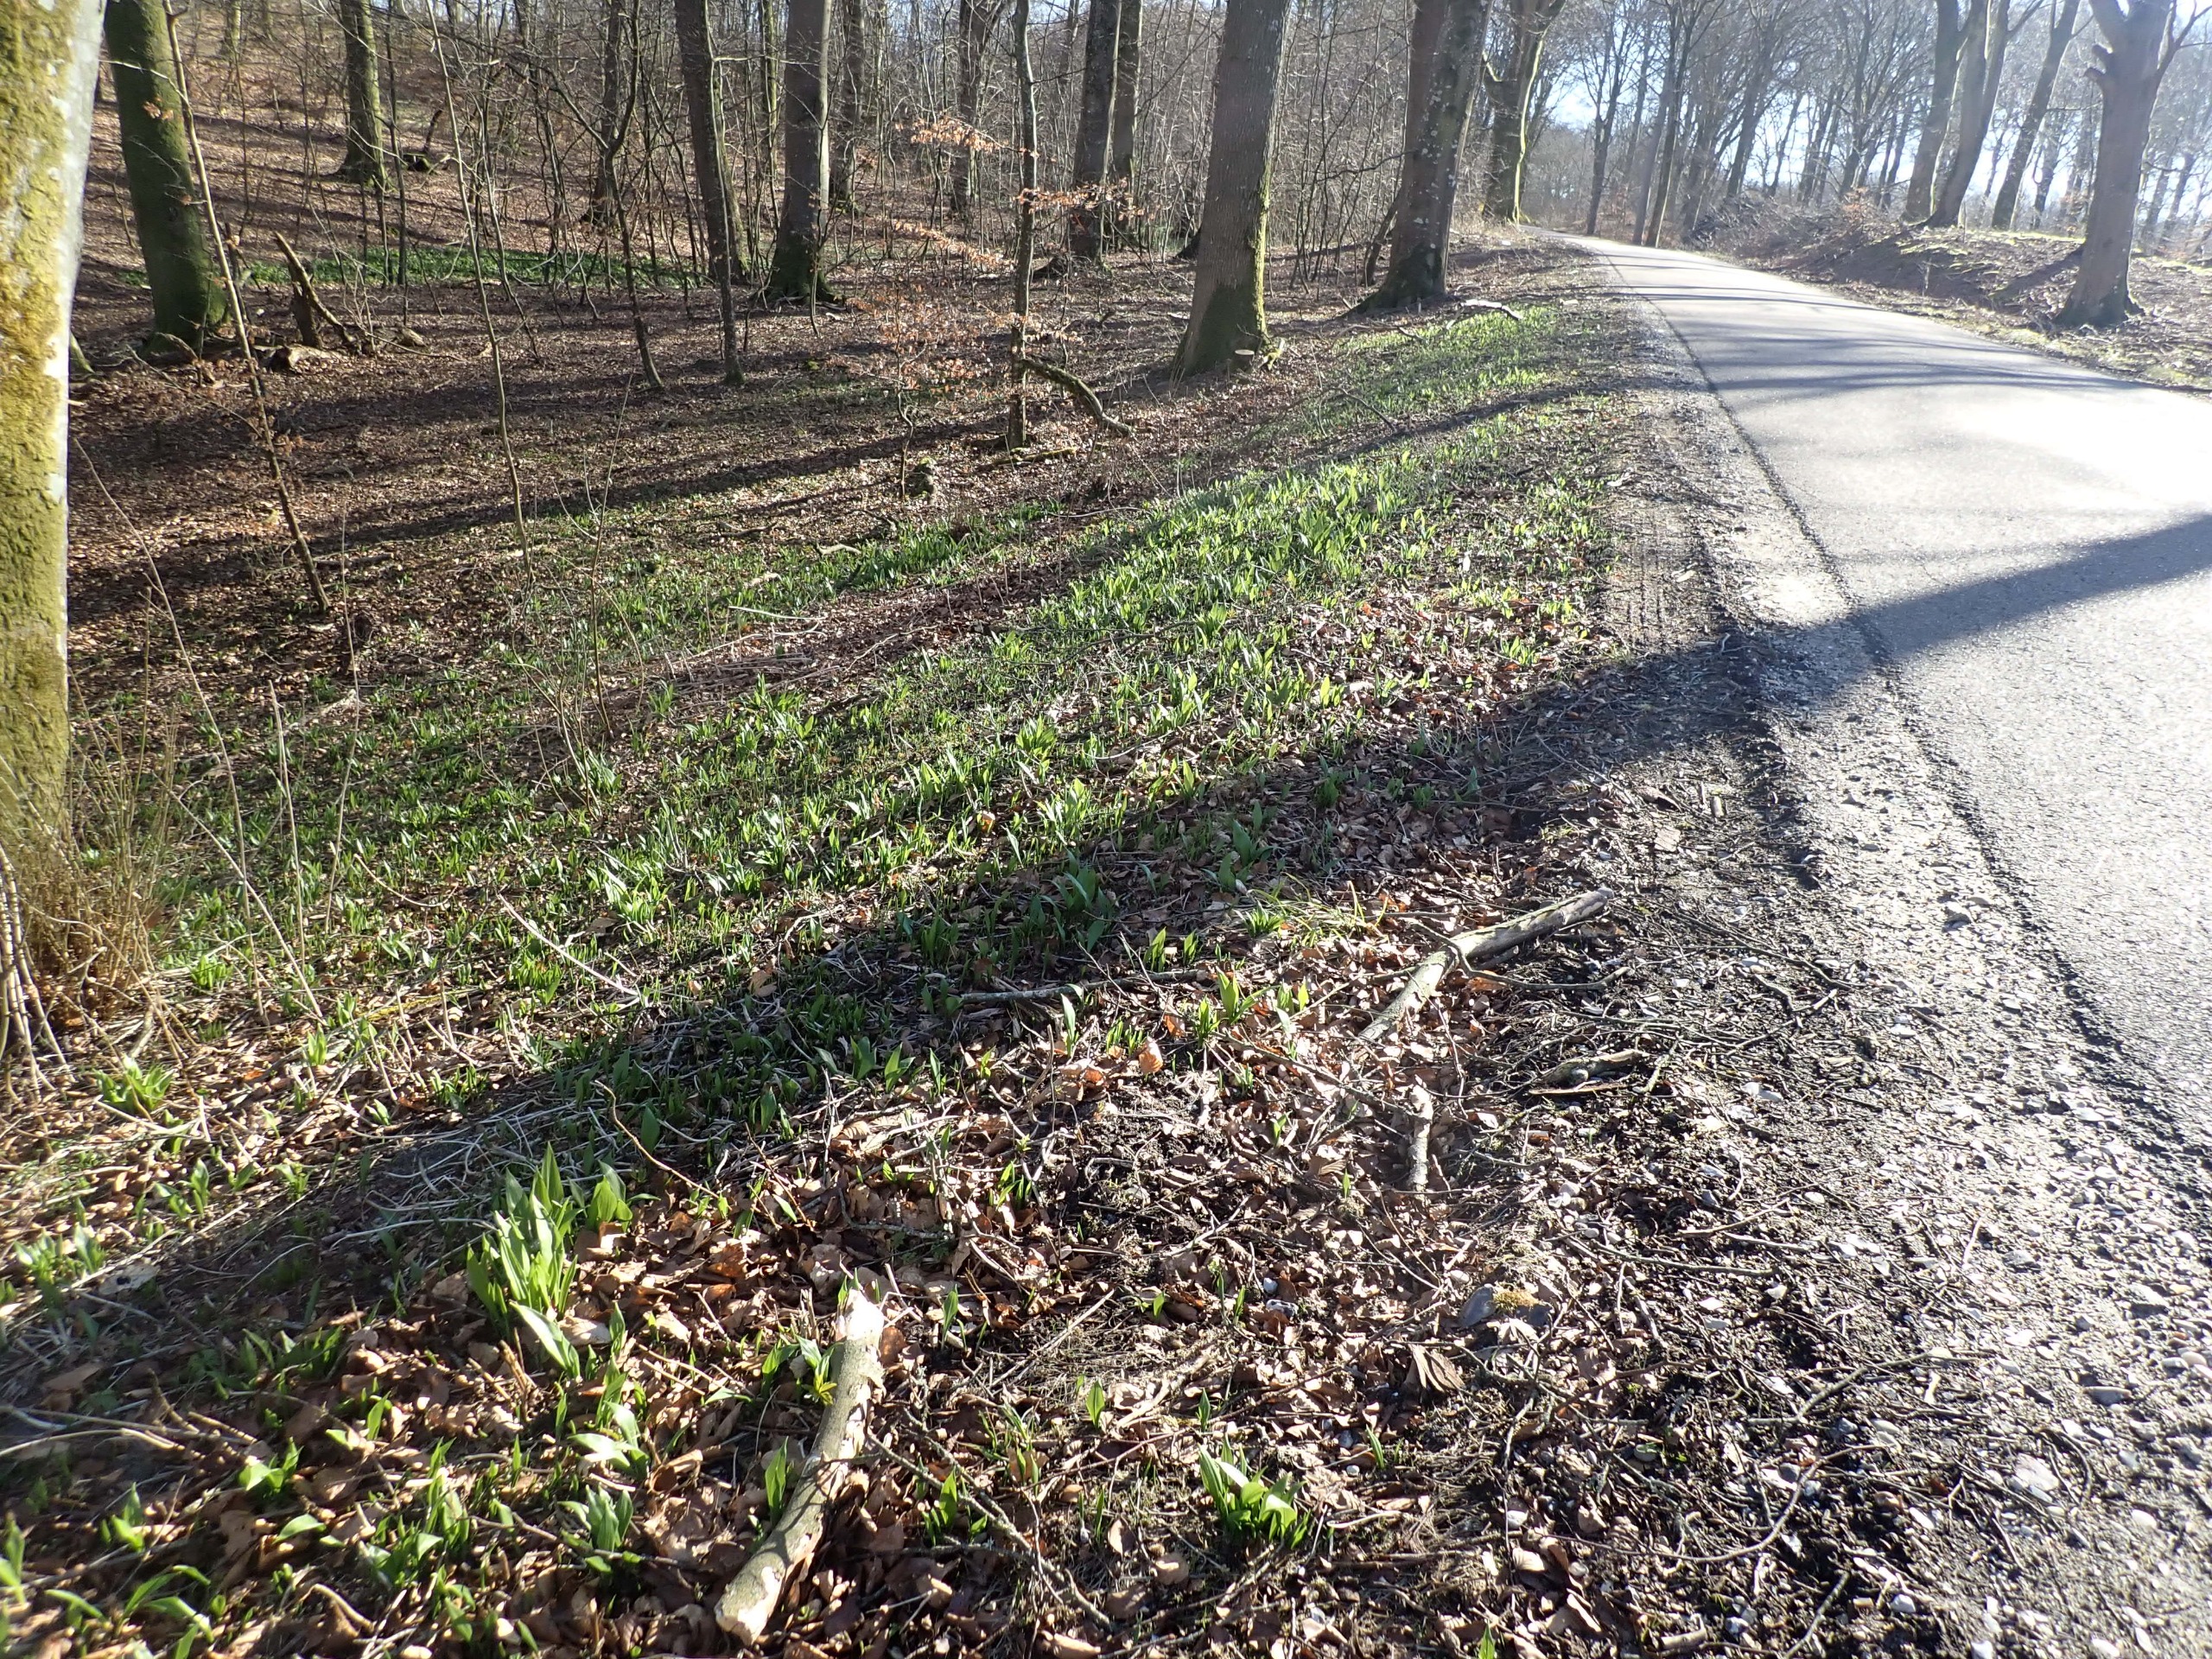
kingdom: Plantae
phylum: Tracheophyta
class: Liliopsida
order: Asparagales
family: Amaryllidaceae
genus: Allium
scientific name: Allium ursinum
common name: Rams-løg
